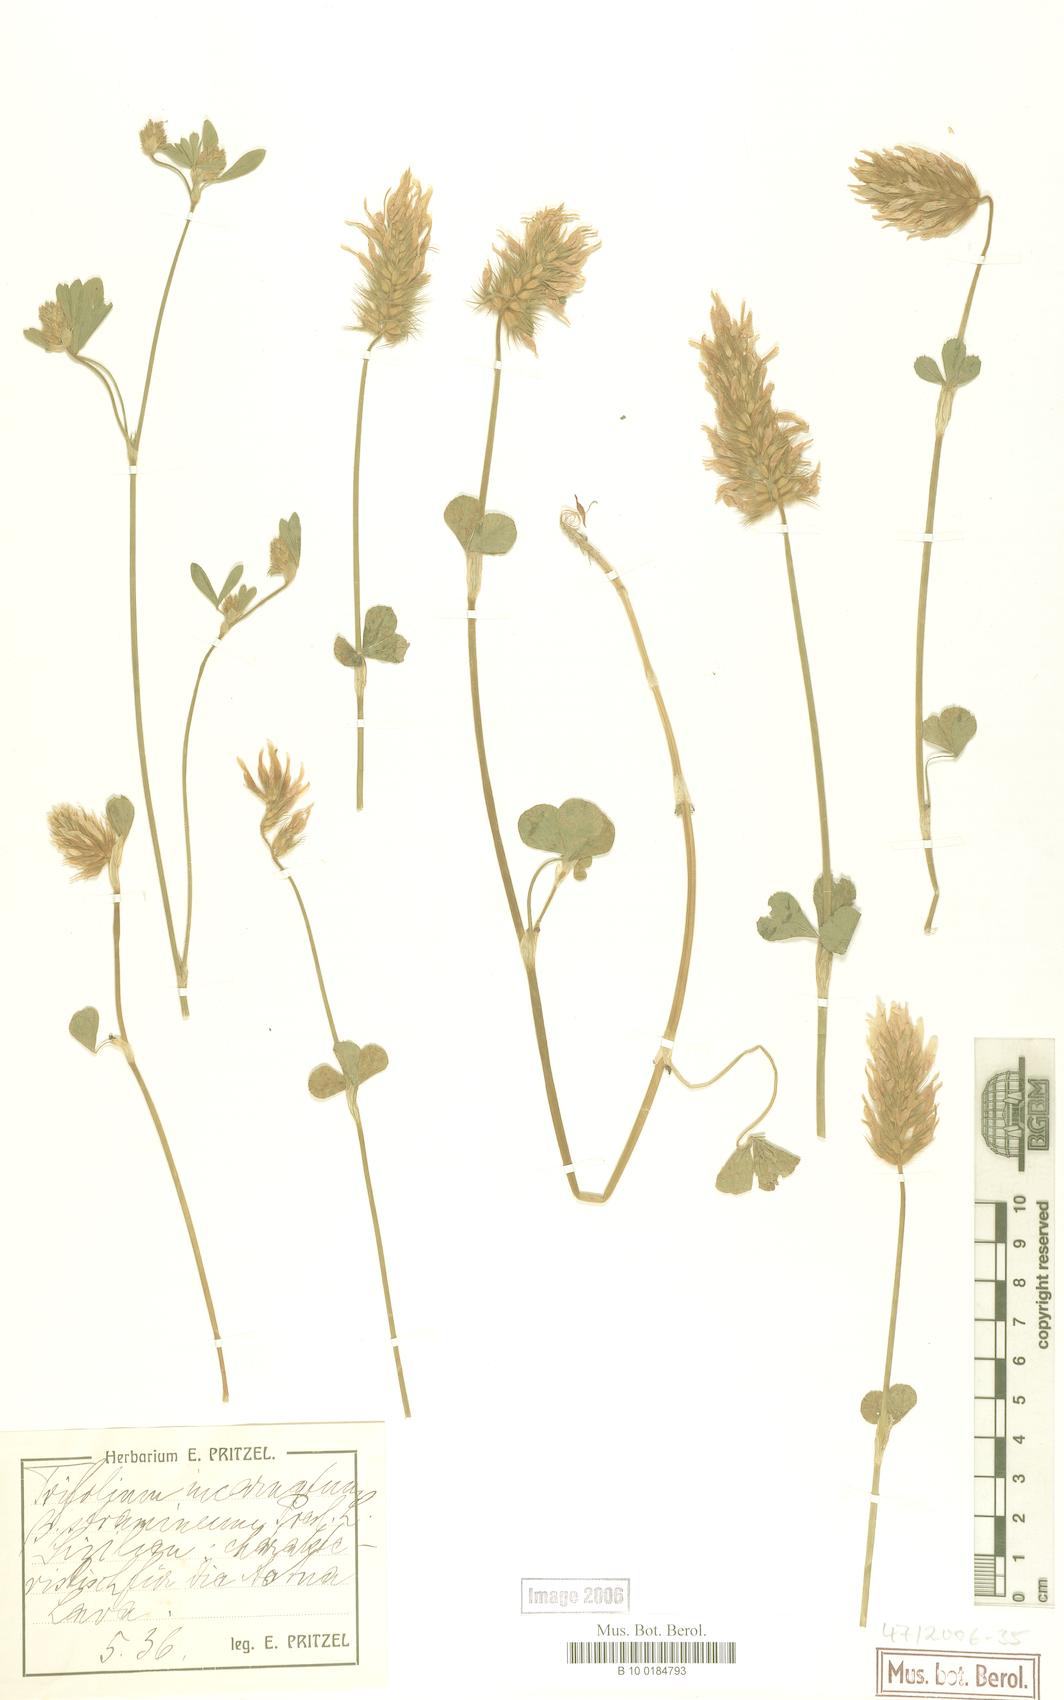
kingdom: Plantae
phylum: Tracheophyta
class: Magnoliopsida
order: Fabales
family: Fabaceae
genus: Trifolium
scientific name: Trifolium incarnatum
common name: Crimson clover
